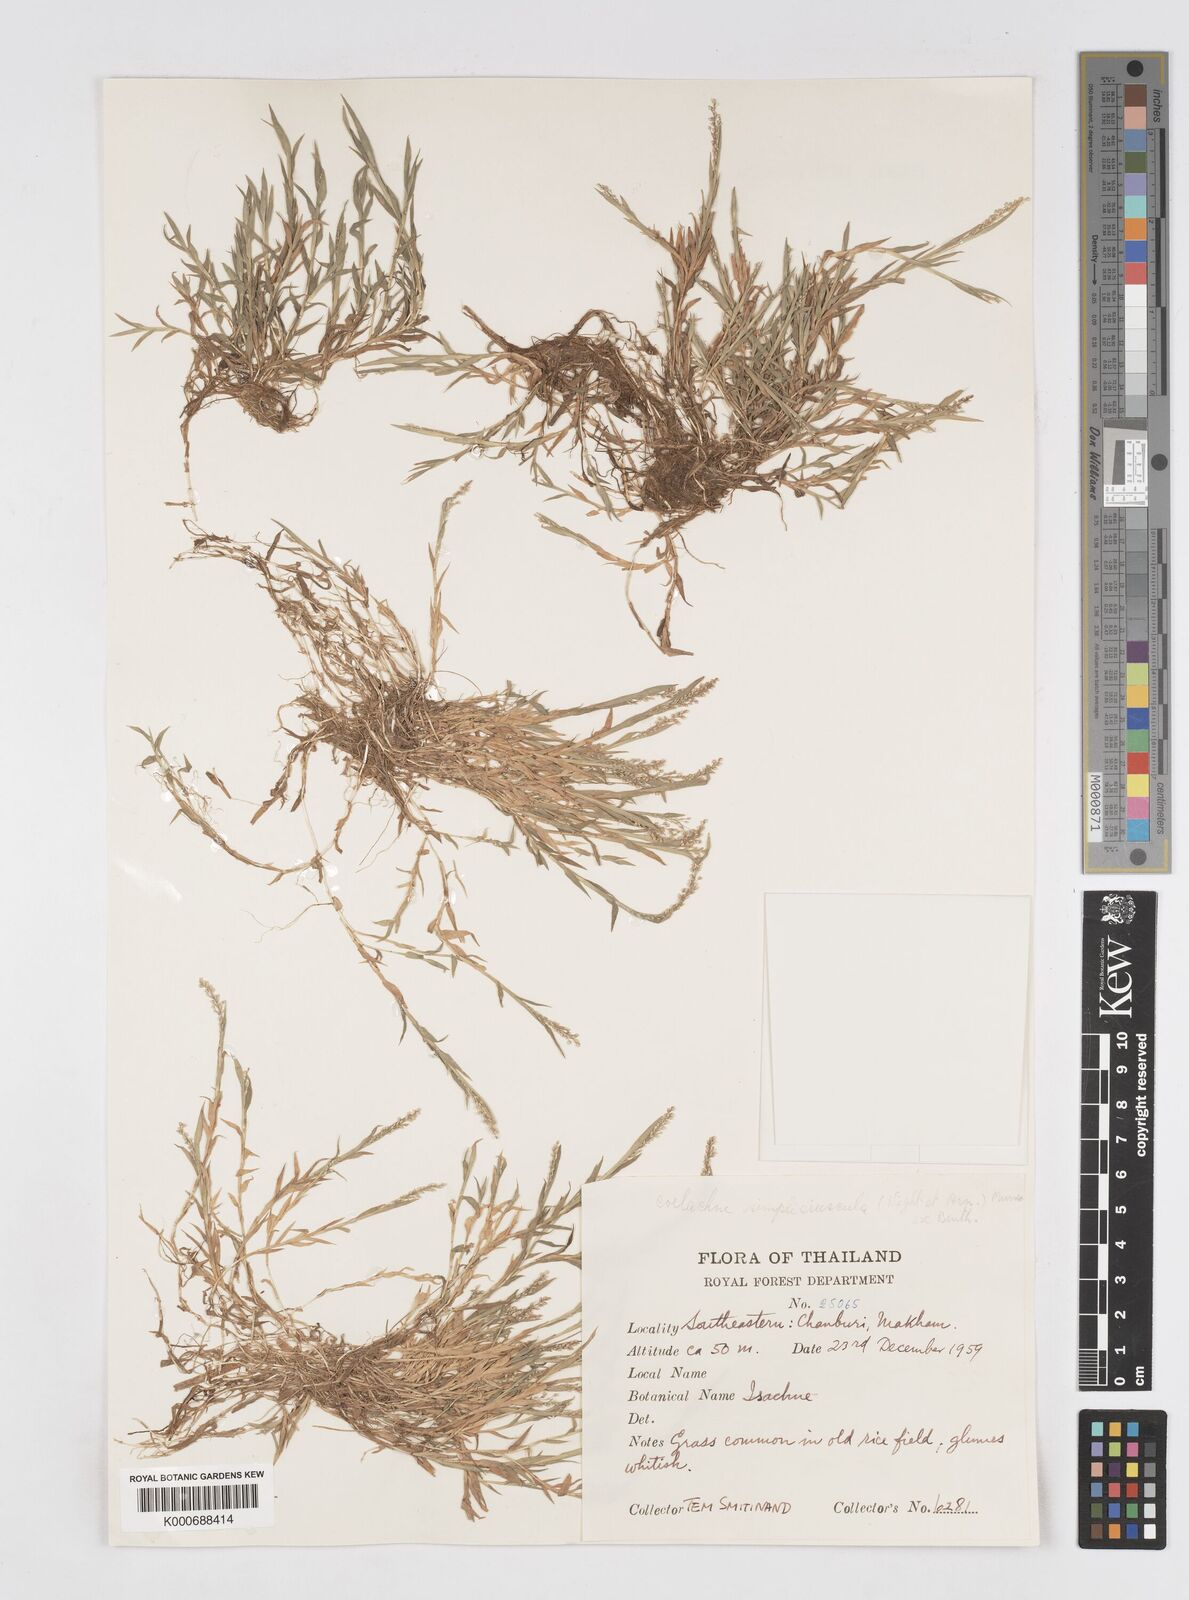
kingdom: Plantae
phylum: Tracheophyta
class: Liliopsida
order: Poales
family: Poaceae
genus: Coelachne
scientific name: Coelachne simpliciuscula
